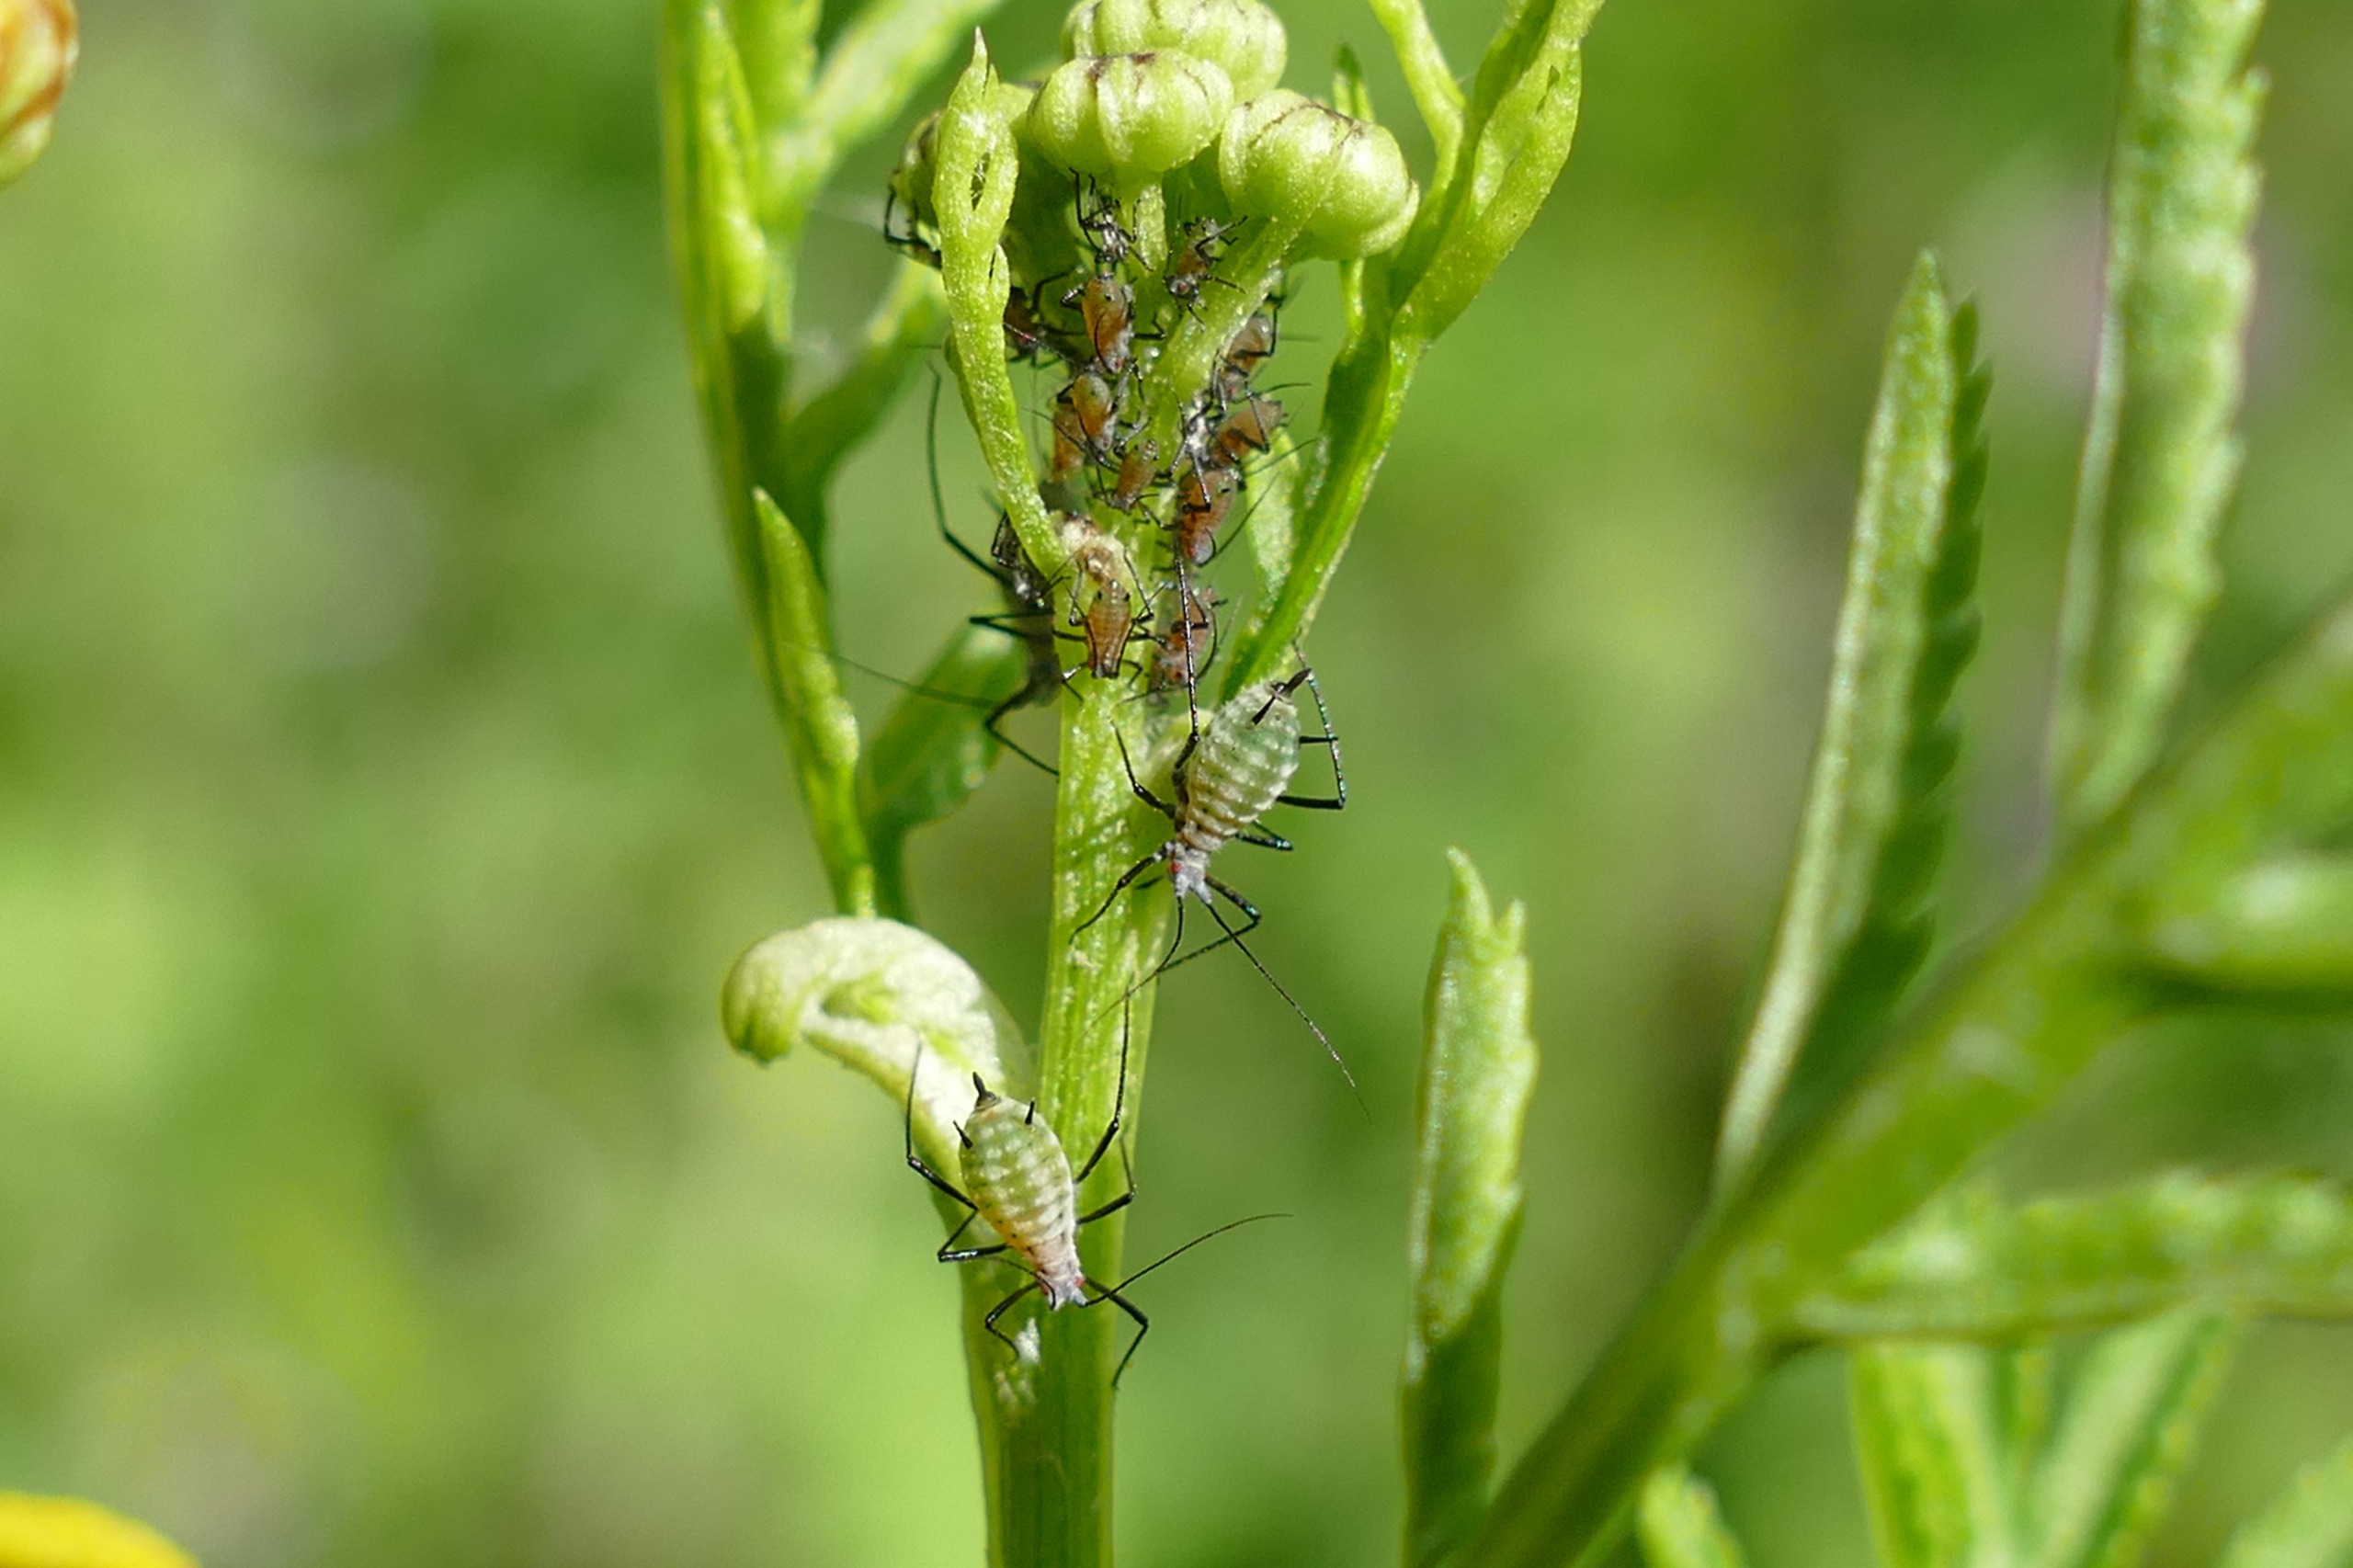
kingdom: Animalia
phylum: Arthropoda
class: Insecta
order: Hemiptera
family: Aphididae
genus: Macrosiphoniella
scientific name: Macrosiphoniella tanacetaria
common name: Rejnfanbladlus
